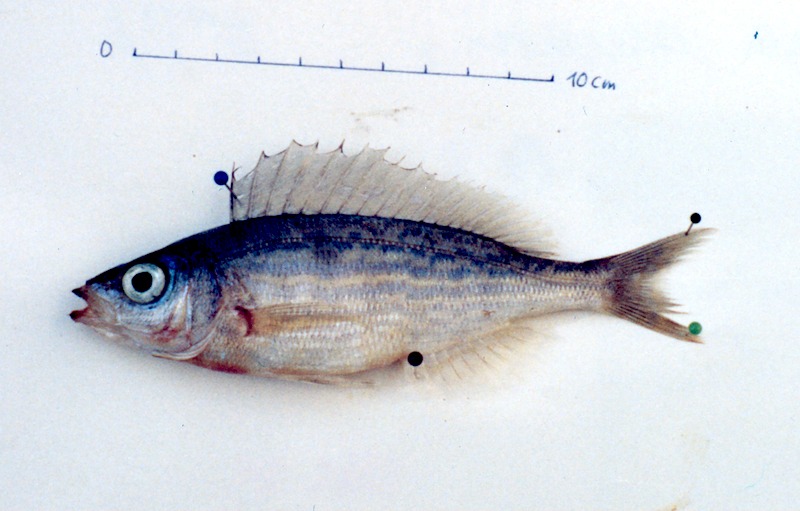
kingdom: Animalia
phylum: Chordata
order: Perciformes
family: Sparidae
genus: Spicara
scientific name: Spicara maena
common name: Blotched picarel
